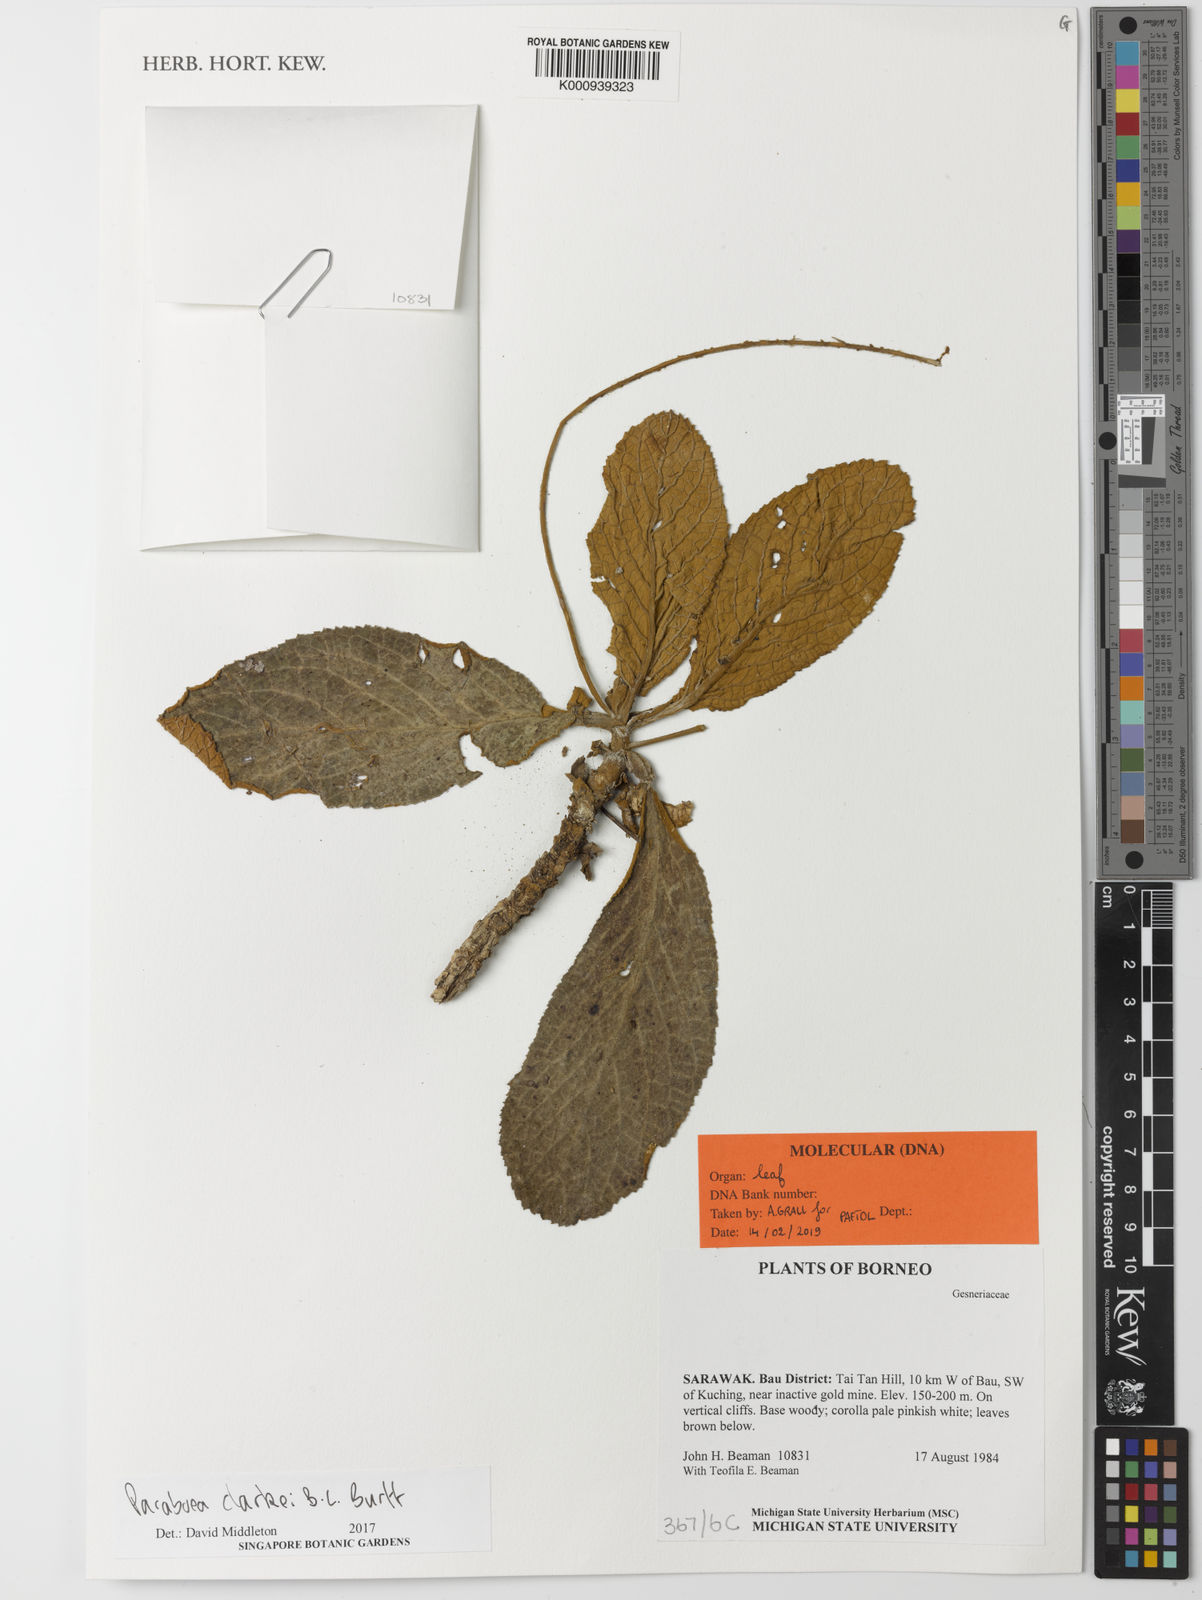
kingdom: Plantae
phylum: Tracheophyta
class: Magnoliopsida
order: Lamiales
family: Gesneriaceae
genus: Paraboea
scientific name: Paraboea clarkei
